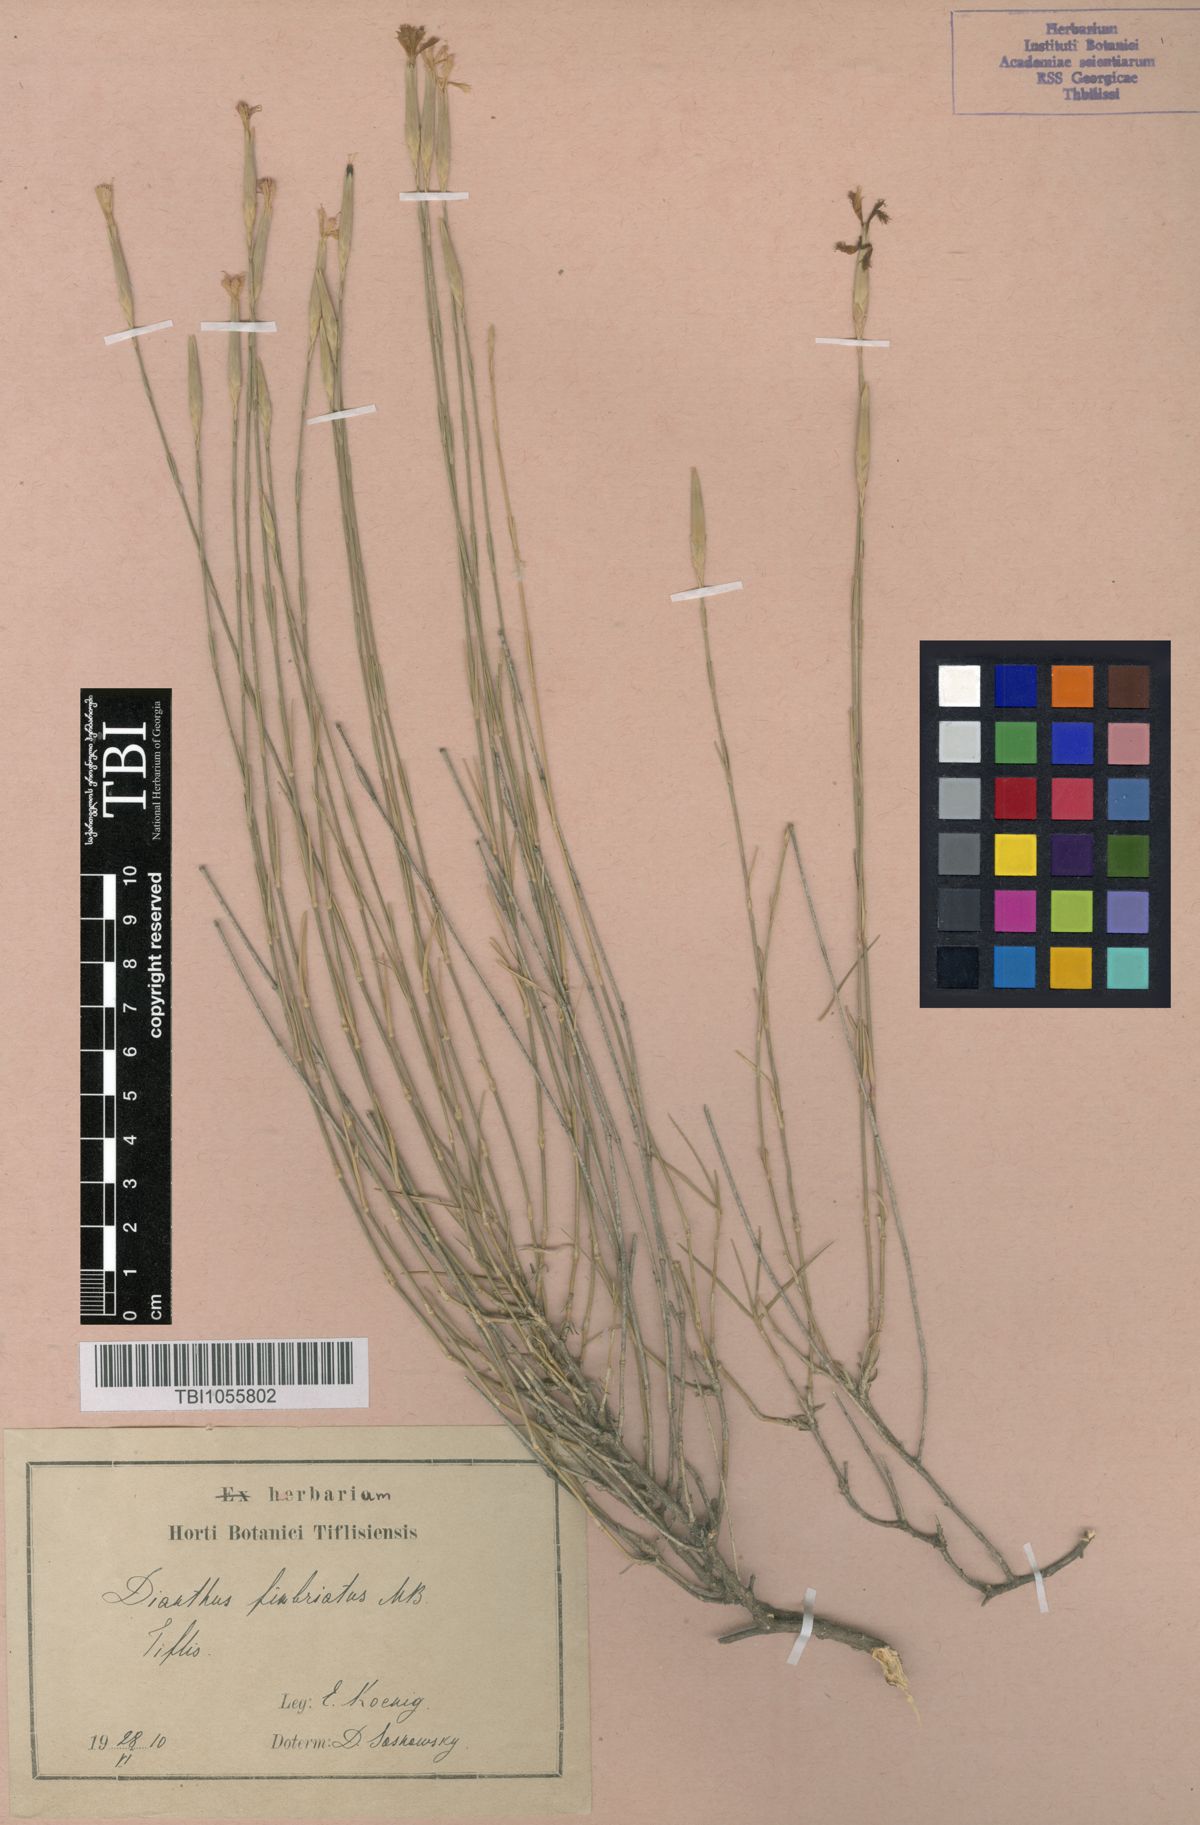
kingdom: Plantae
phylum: Tracheophyta
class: Magnoliopsida
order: Caryophyllales
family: Caryophyllaceae
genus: Dianthus
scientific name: Dianthus orientalis
